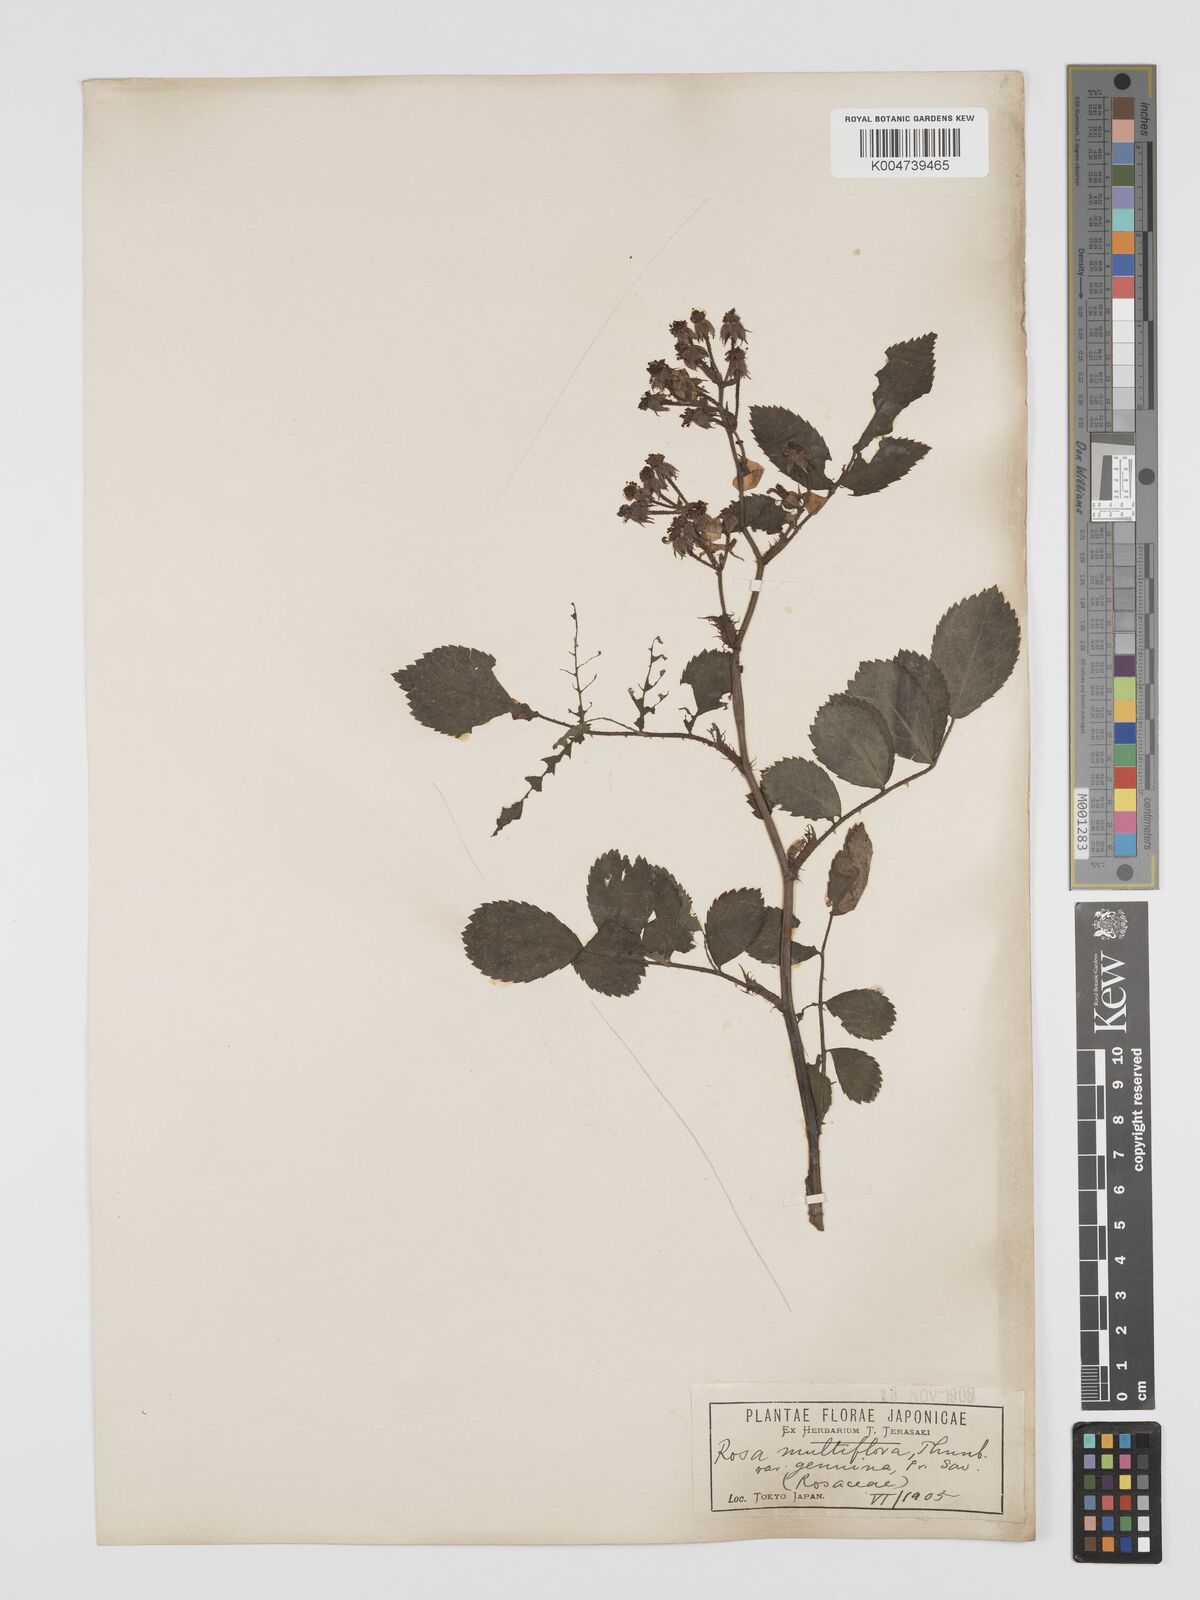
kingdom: Plantae
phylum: Tracheophyta
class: Magnoliopsida
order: Rosales
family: Rosaceae
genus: Rosa
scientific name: Rosa
